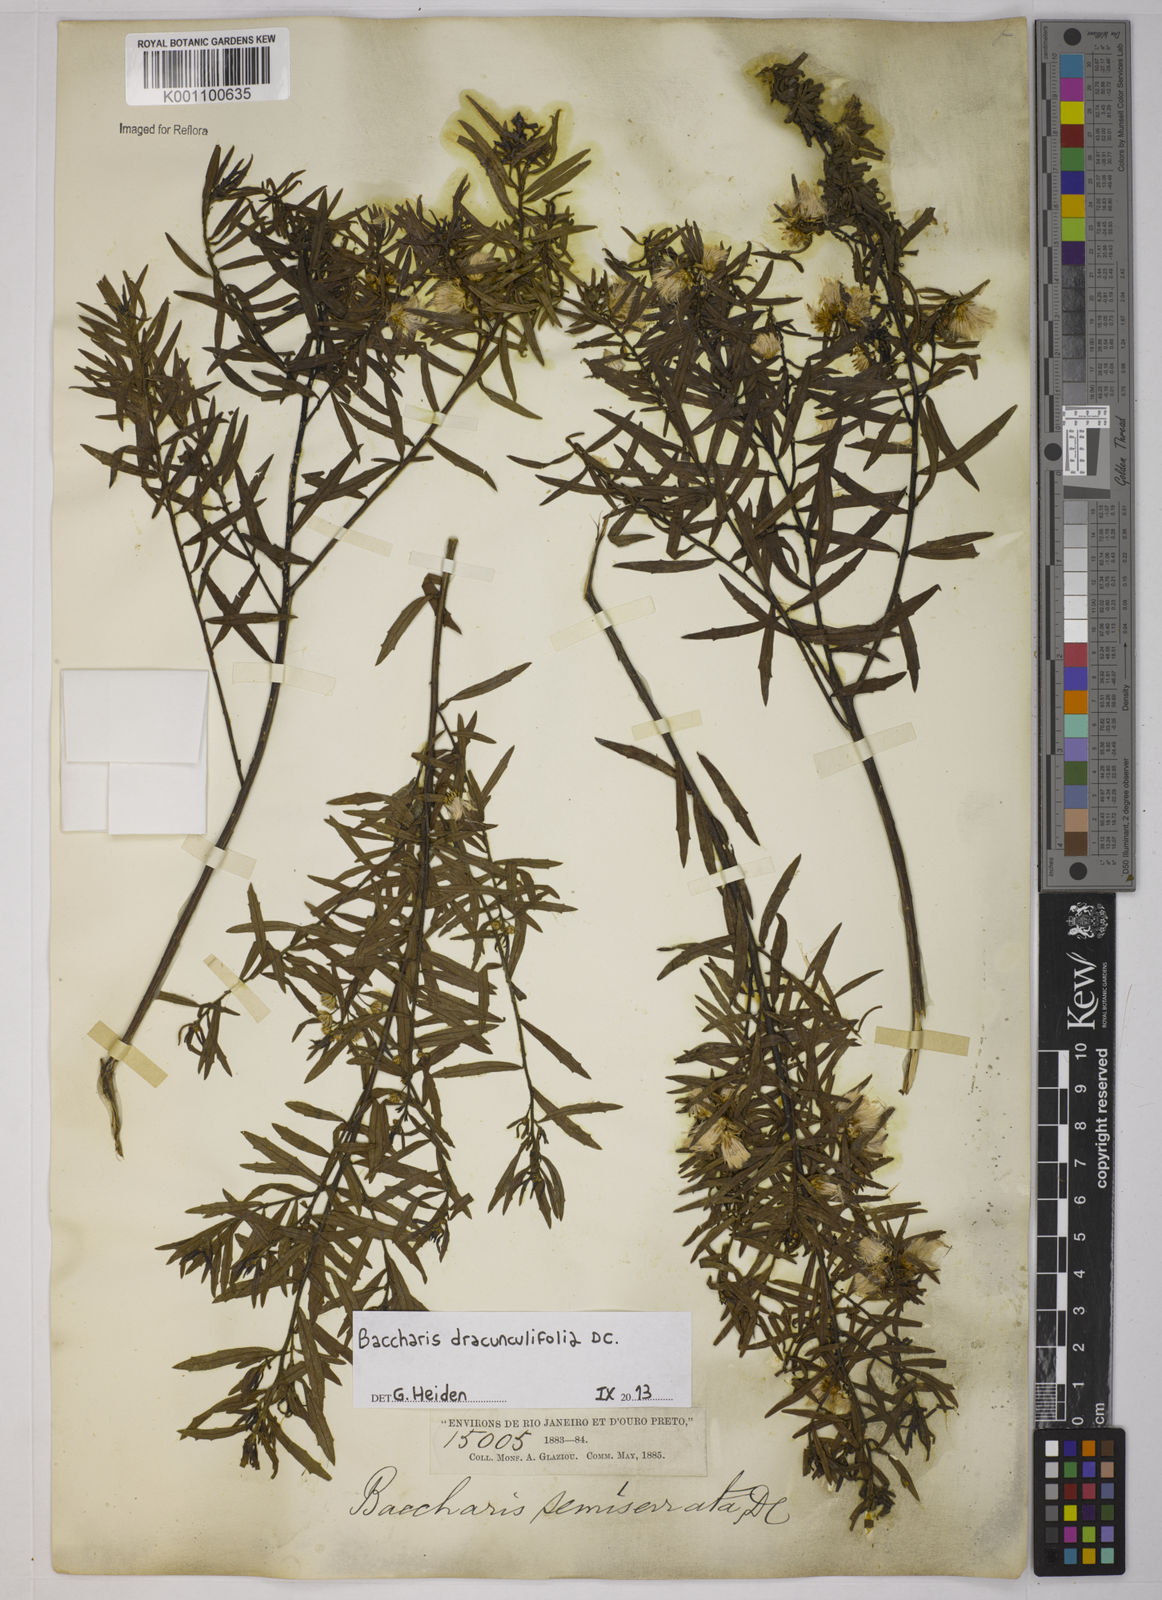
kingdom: Plantae
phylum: Tracheophyta
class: Magnoliopsida
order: Asterales
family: Asteraceae
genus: Baccharis
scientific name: Baccharis dracunculifolia
